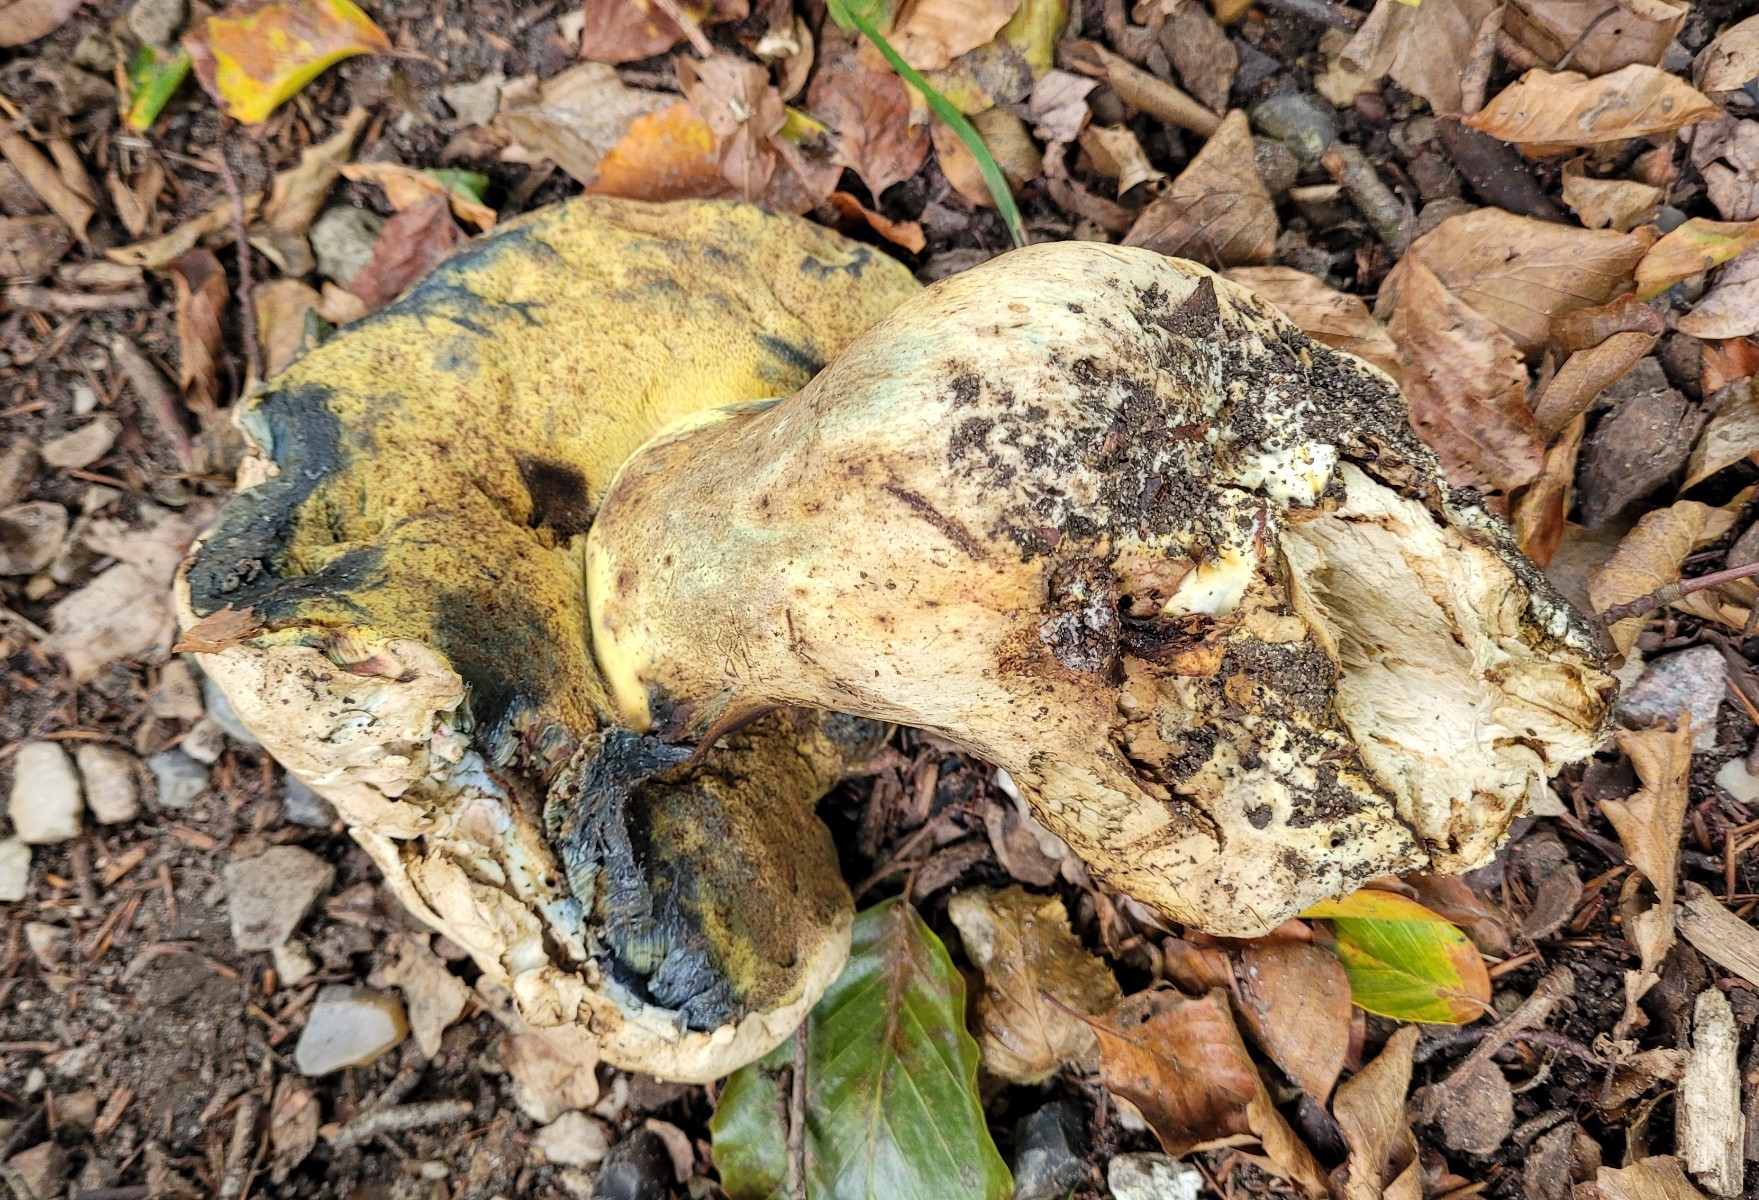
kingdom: Fungi
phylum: Basidiomycota
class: Agaricomycetes
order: Boletales
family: Boletaceae
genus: Caloboletus
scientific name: Caloboletus radicans
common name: rod-rørhat
